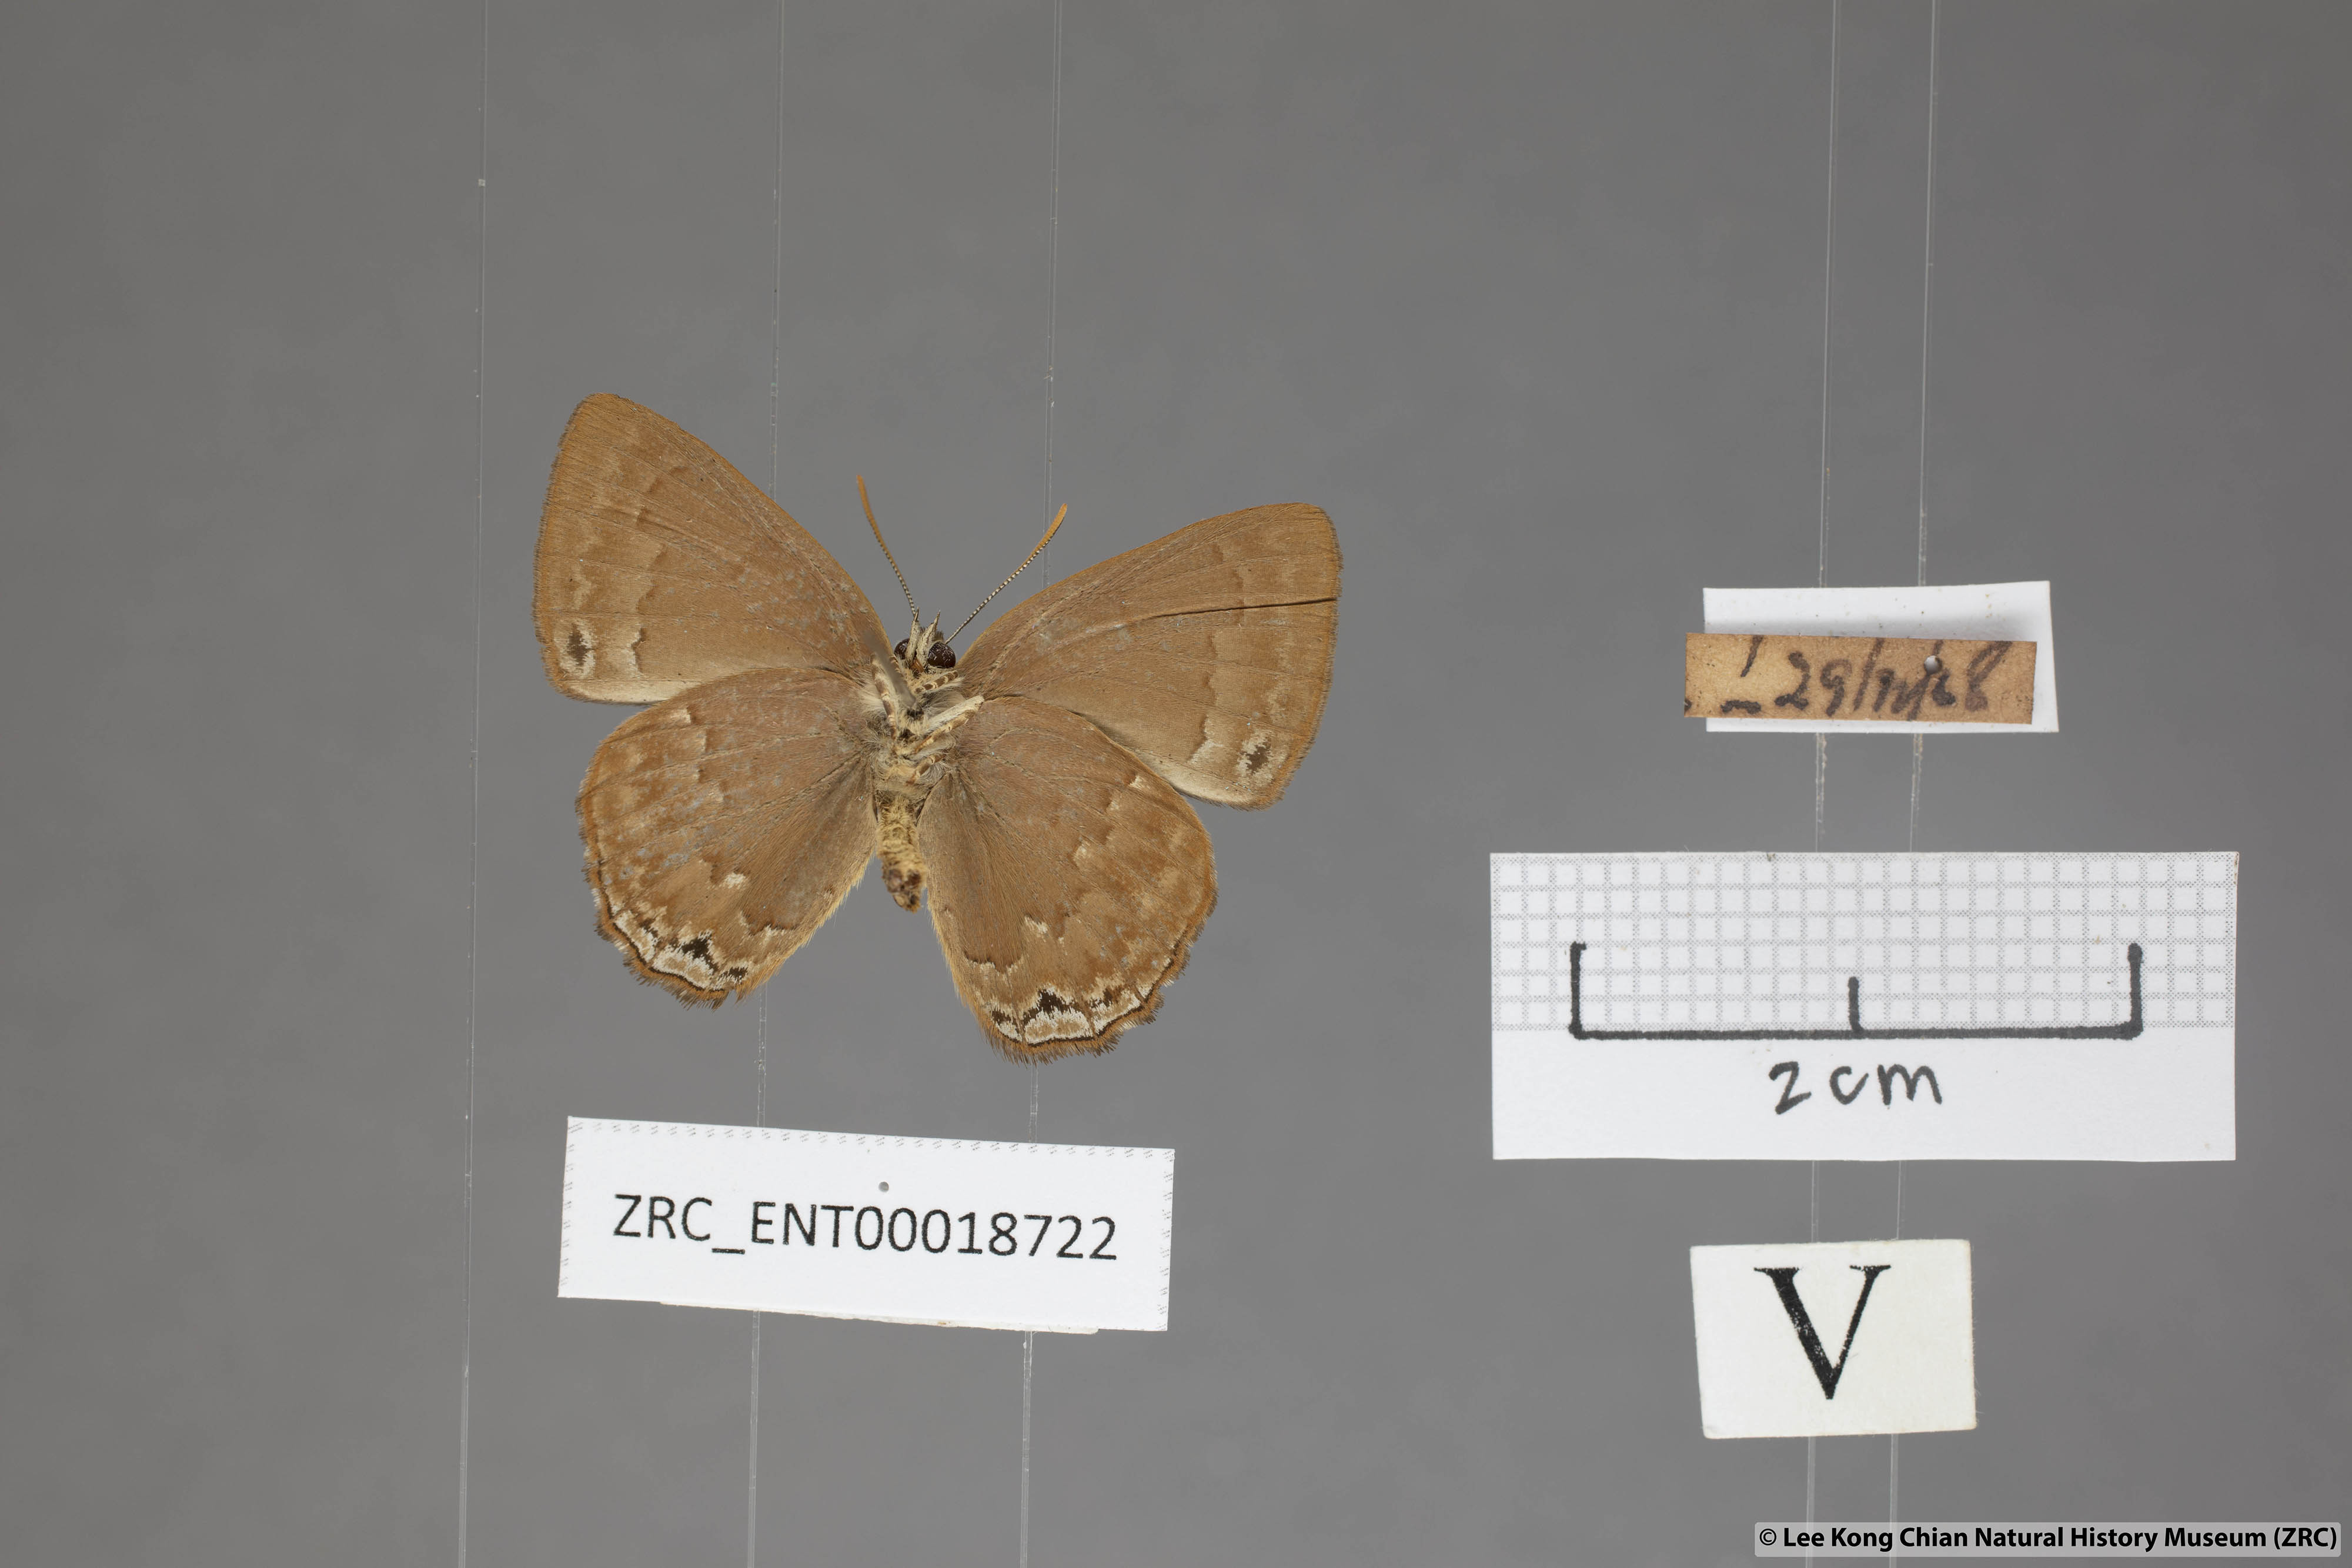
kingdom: Animalia
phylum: Arthropoda
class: Insecta
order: Lepidoptera
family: Lycaenidae
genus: Deramas
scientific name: Deramas livena
